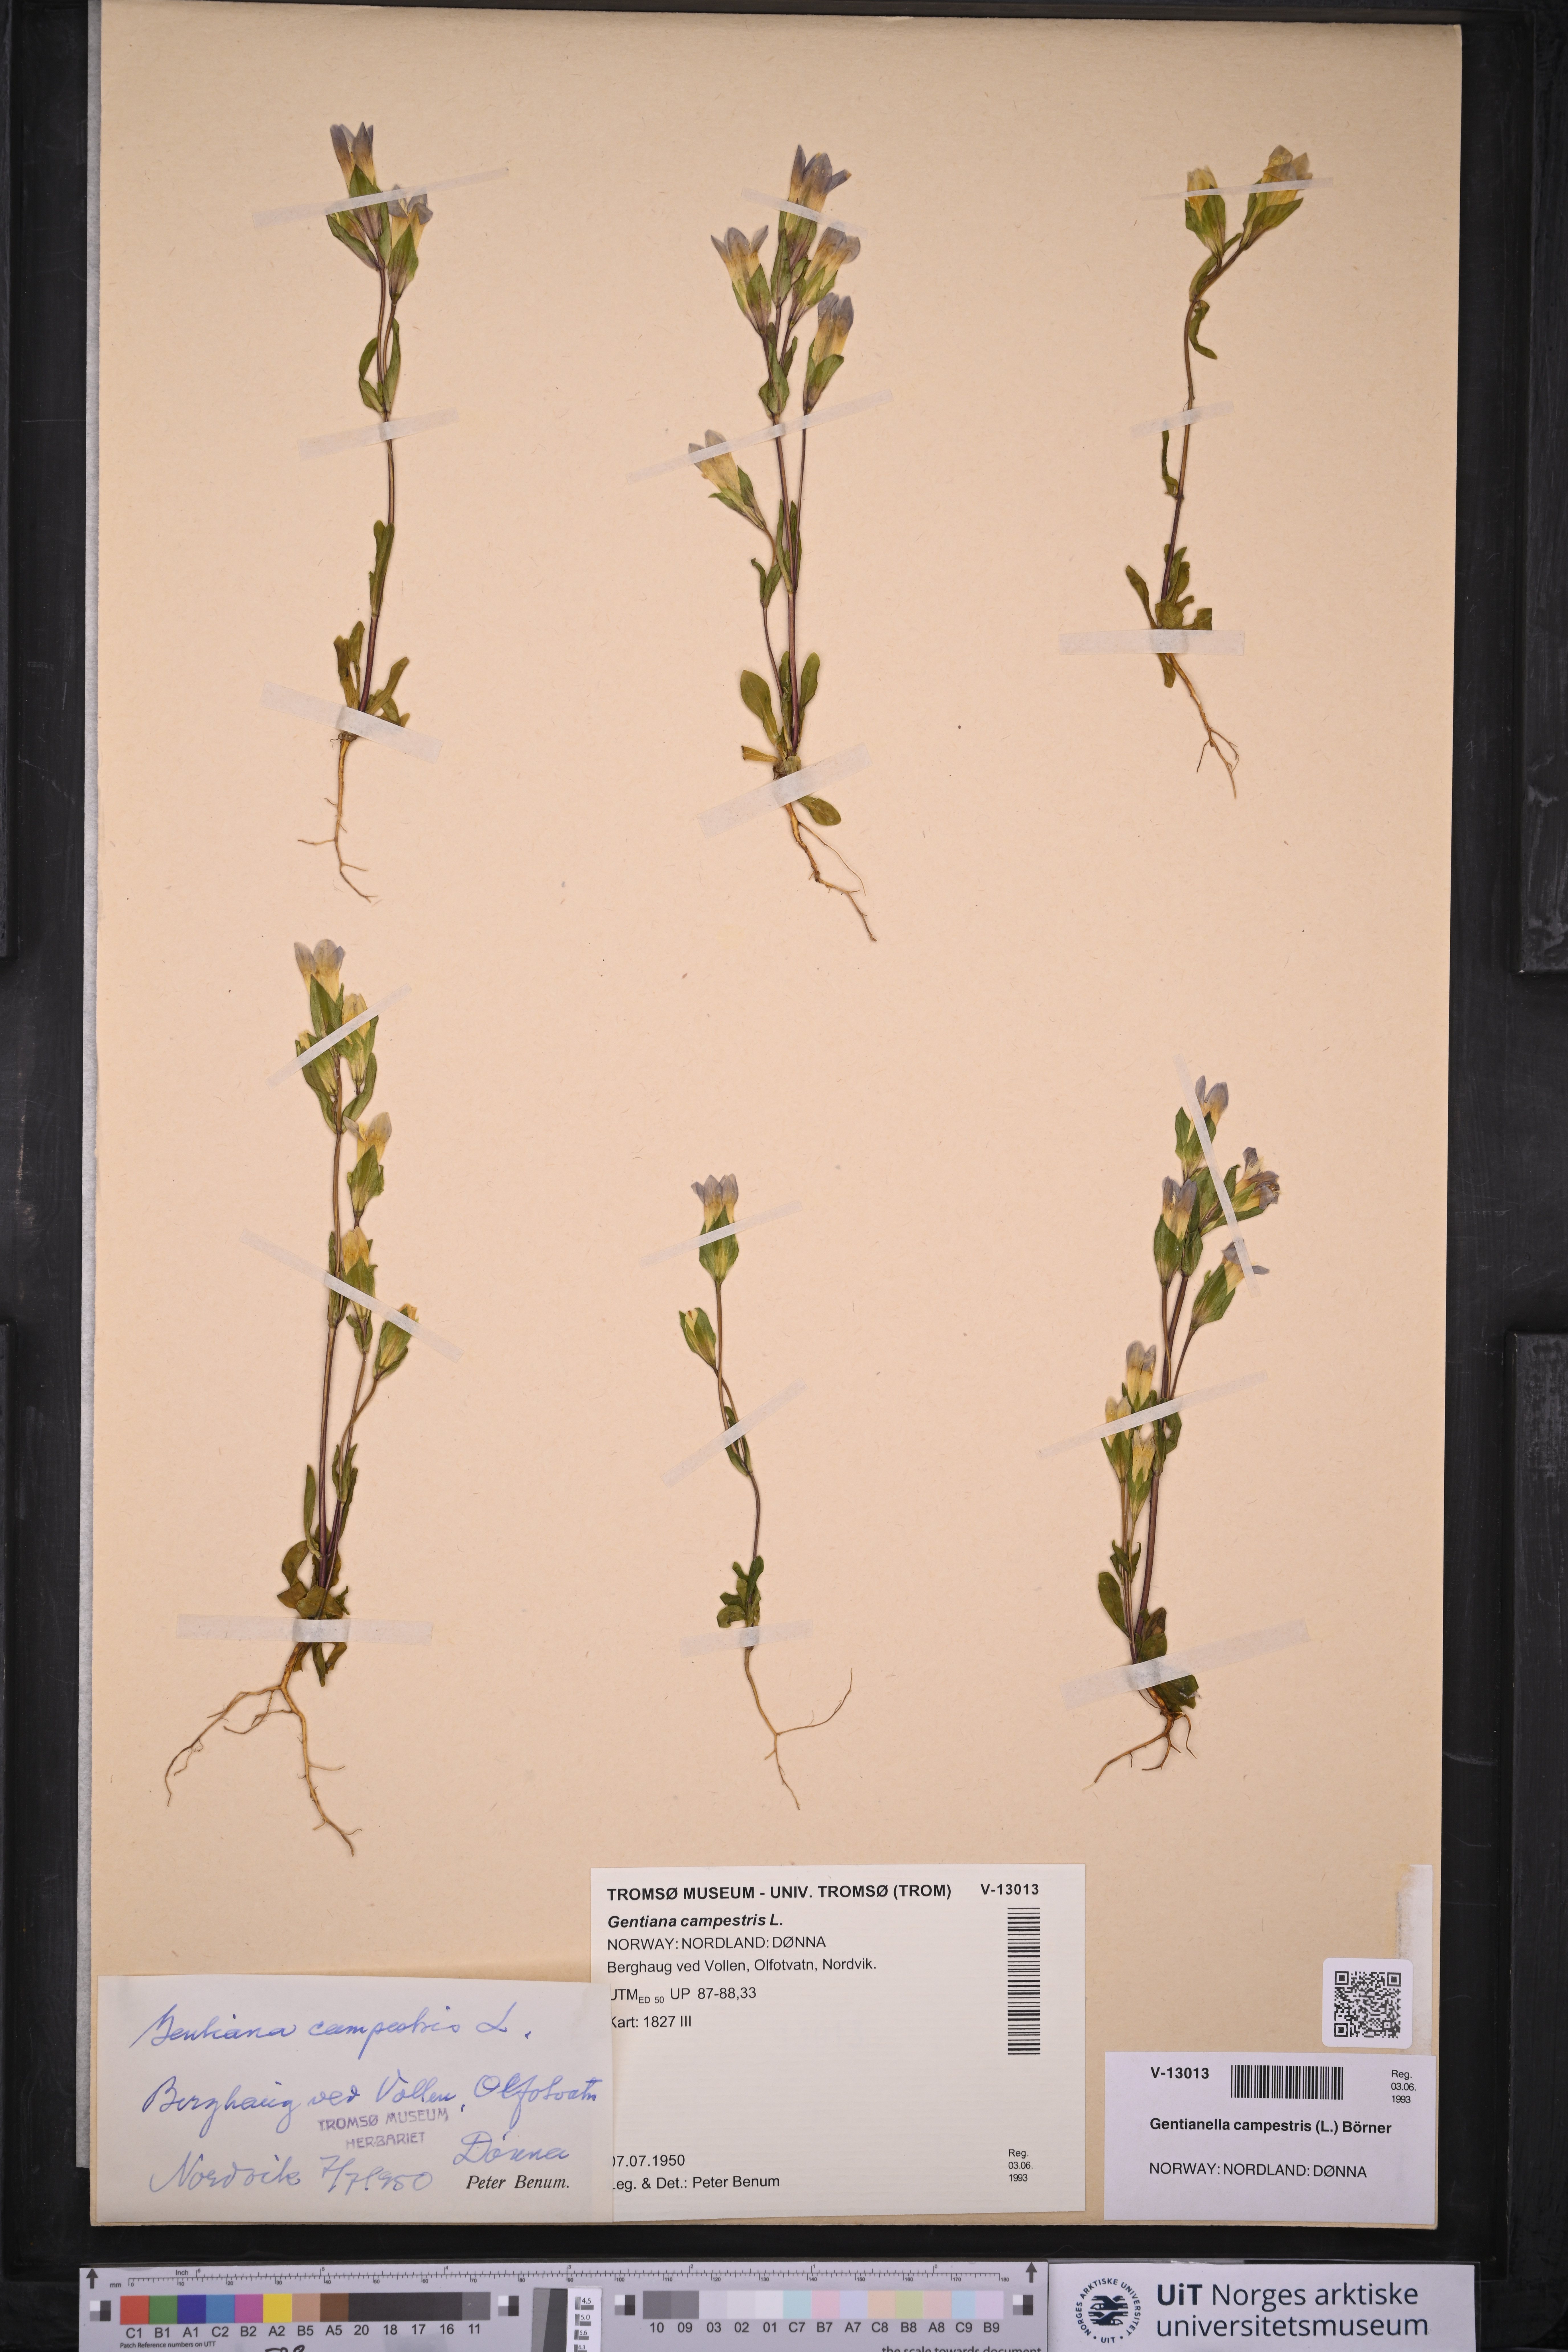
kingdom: Plantae
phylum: Tracheophyta
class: Magnoliopsida
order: Gentianales
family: Gentianaceae
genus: Gentianella
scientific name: Gentianella campestris
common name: Field gentian
